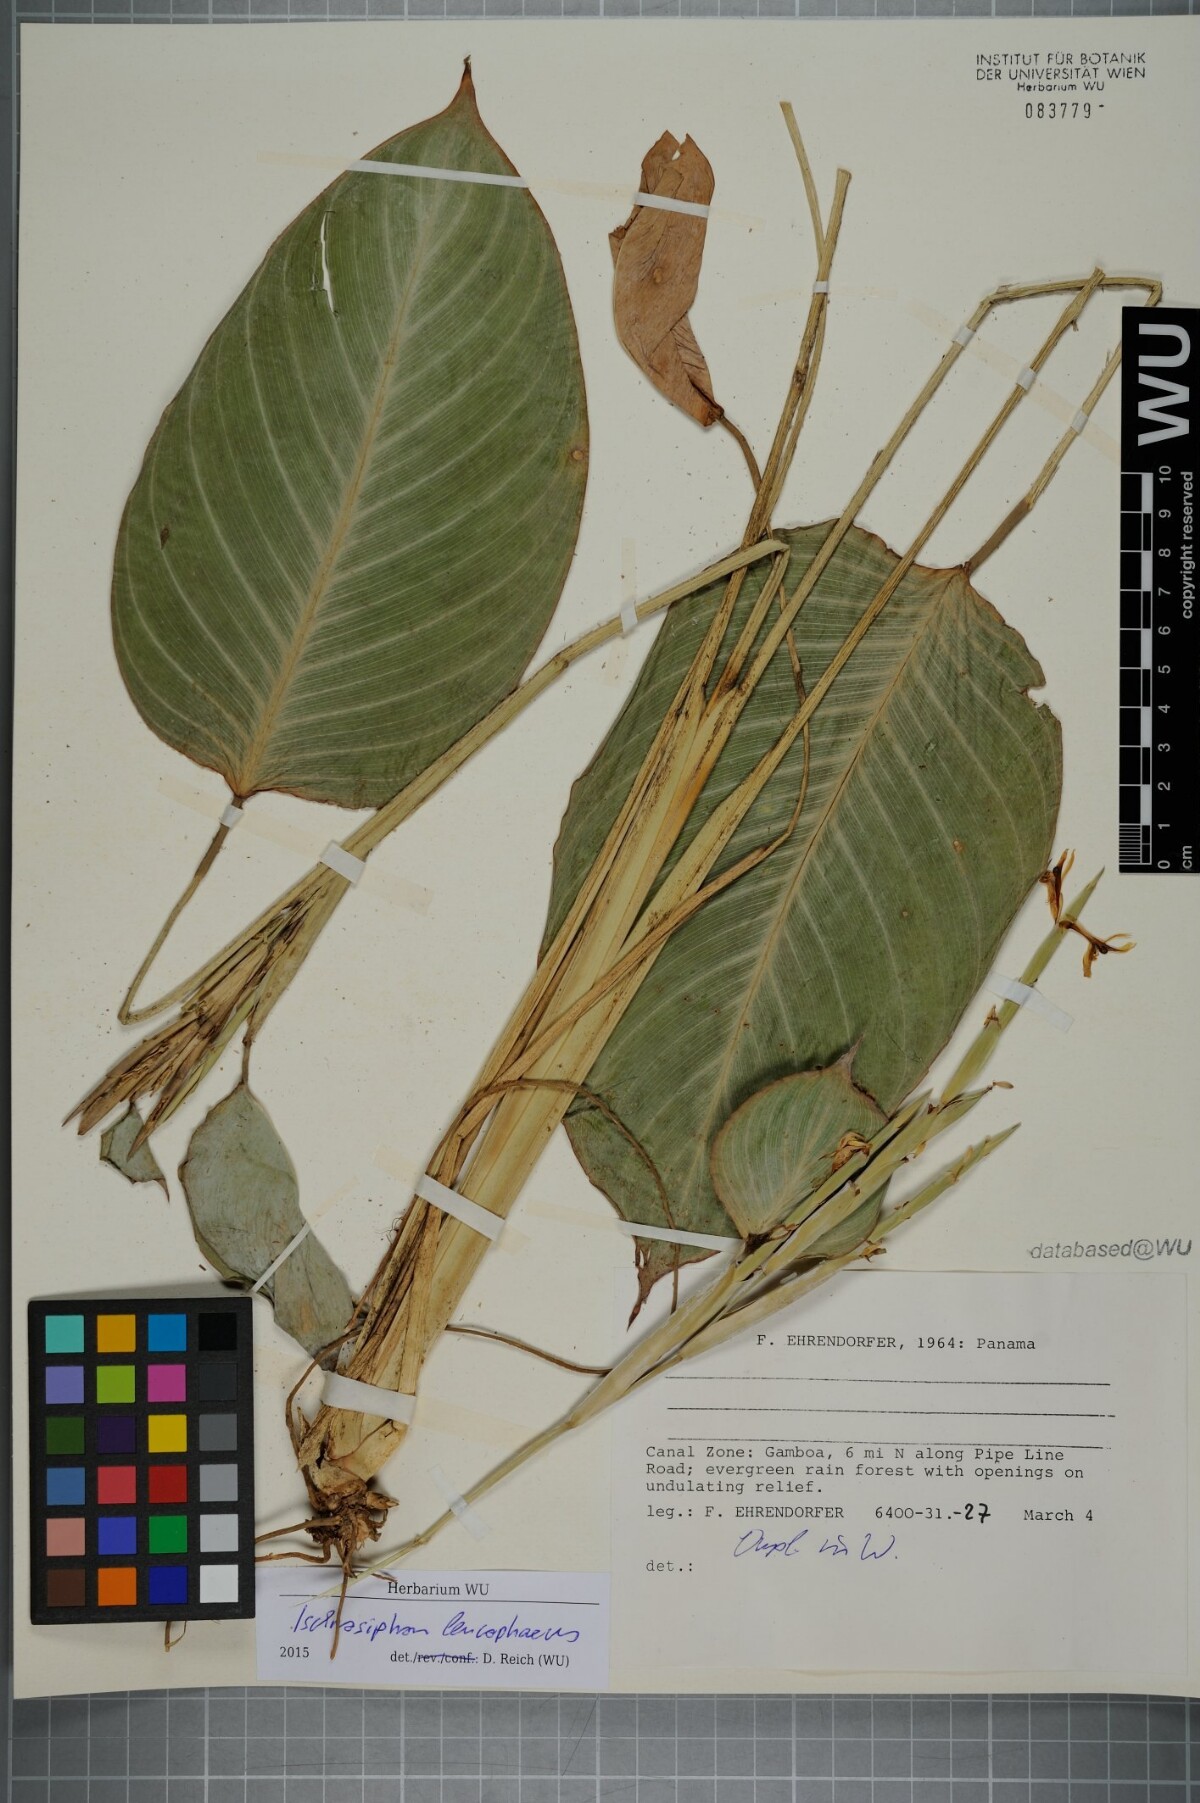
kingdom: Plantae
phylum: Tracheophyta
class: Liliopsida
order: Zingiberales
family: Marantaceae
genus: Ischnosiphon
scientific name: Ischnosiphon leucophaeus
